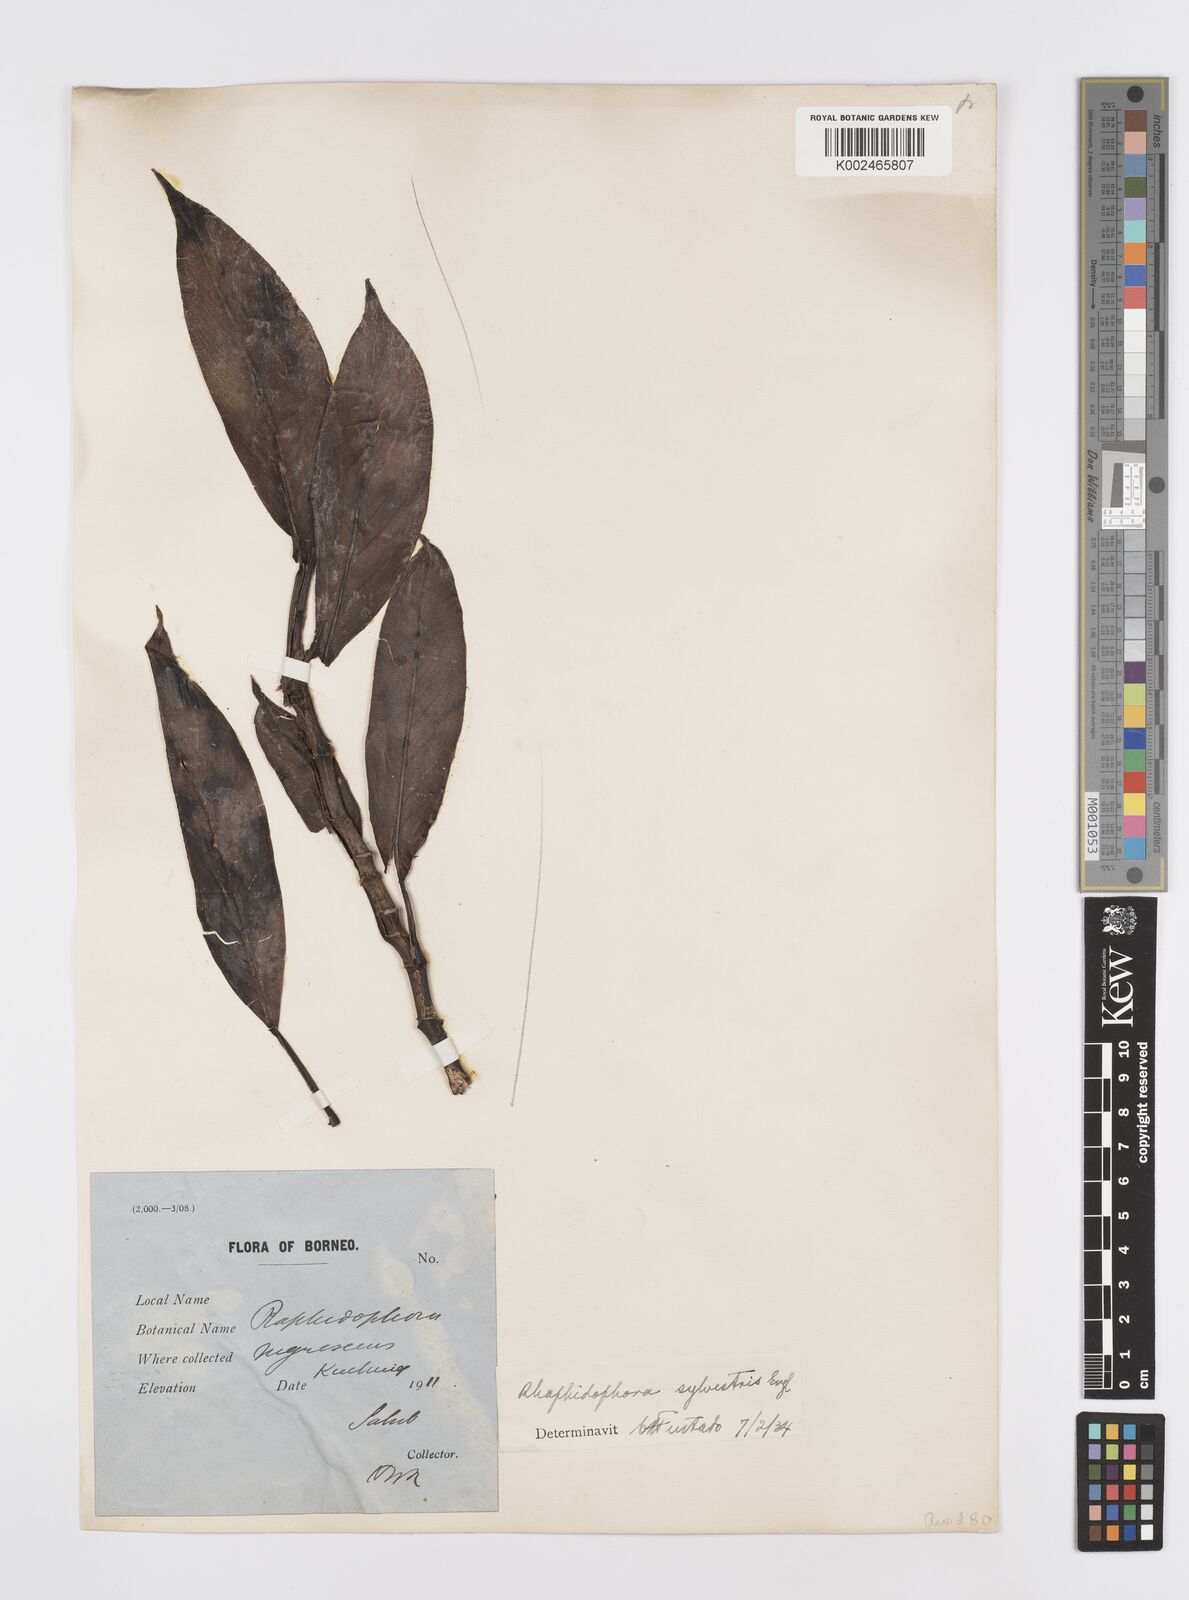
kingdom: Plantae
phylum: Tracheophyta
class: Liliopsida
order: Alismatales
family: Araceae
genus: Rhaphidophora
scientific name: Rhaphidophora sylvestris
